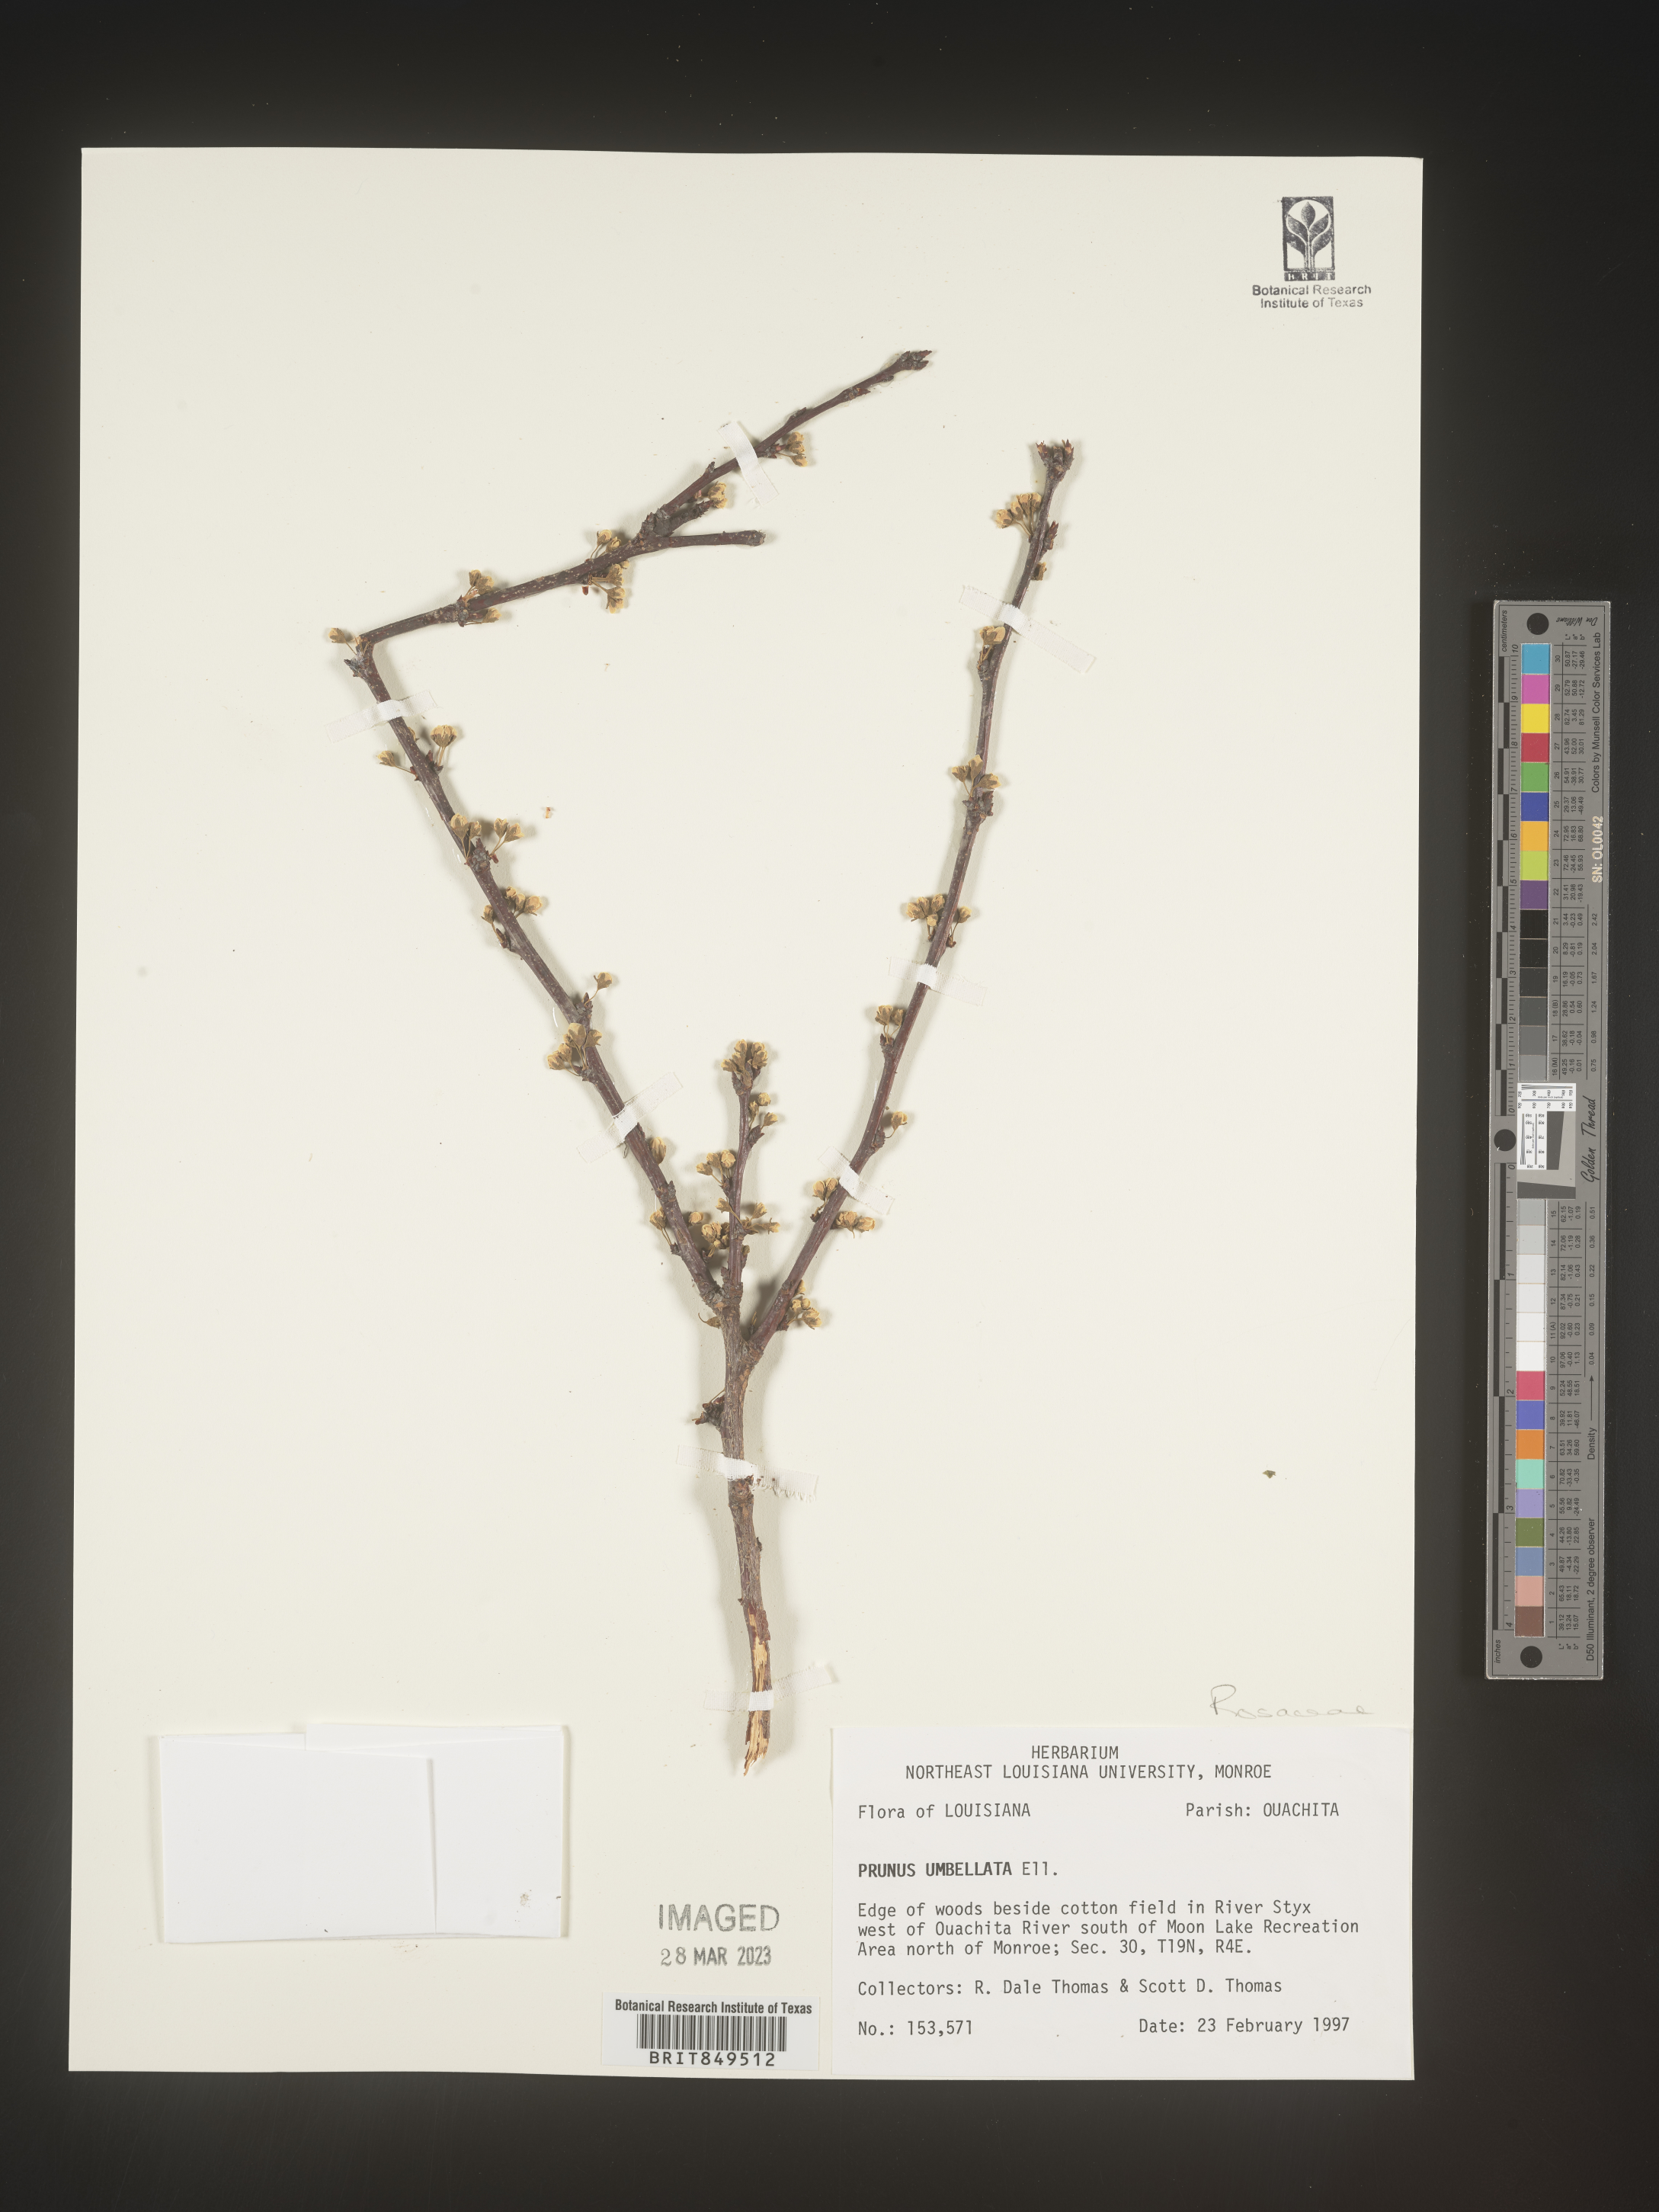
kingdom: Plantae
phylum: Tracheophyta
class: Magnoliopsida
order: Rosales
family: Rosaceae
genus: Prunus
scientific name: Prunus umbellata
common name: Allegheny plum
